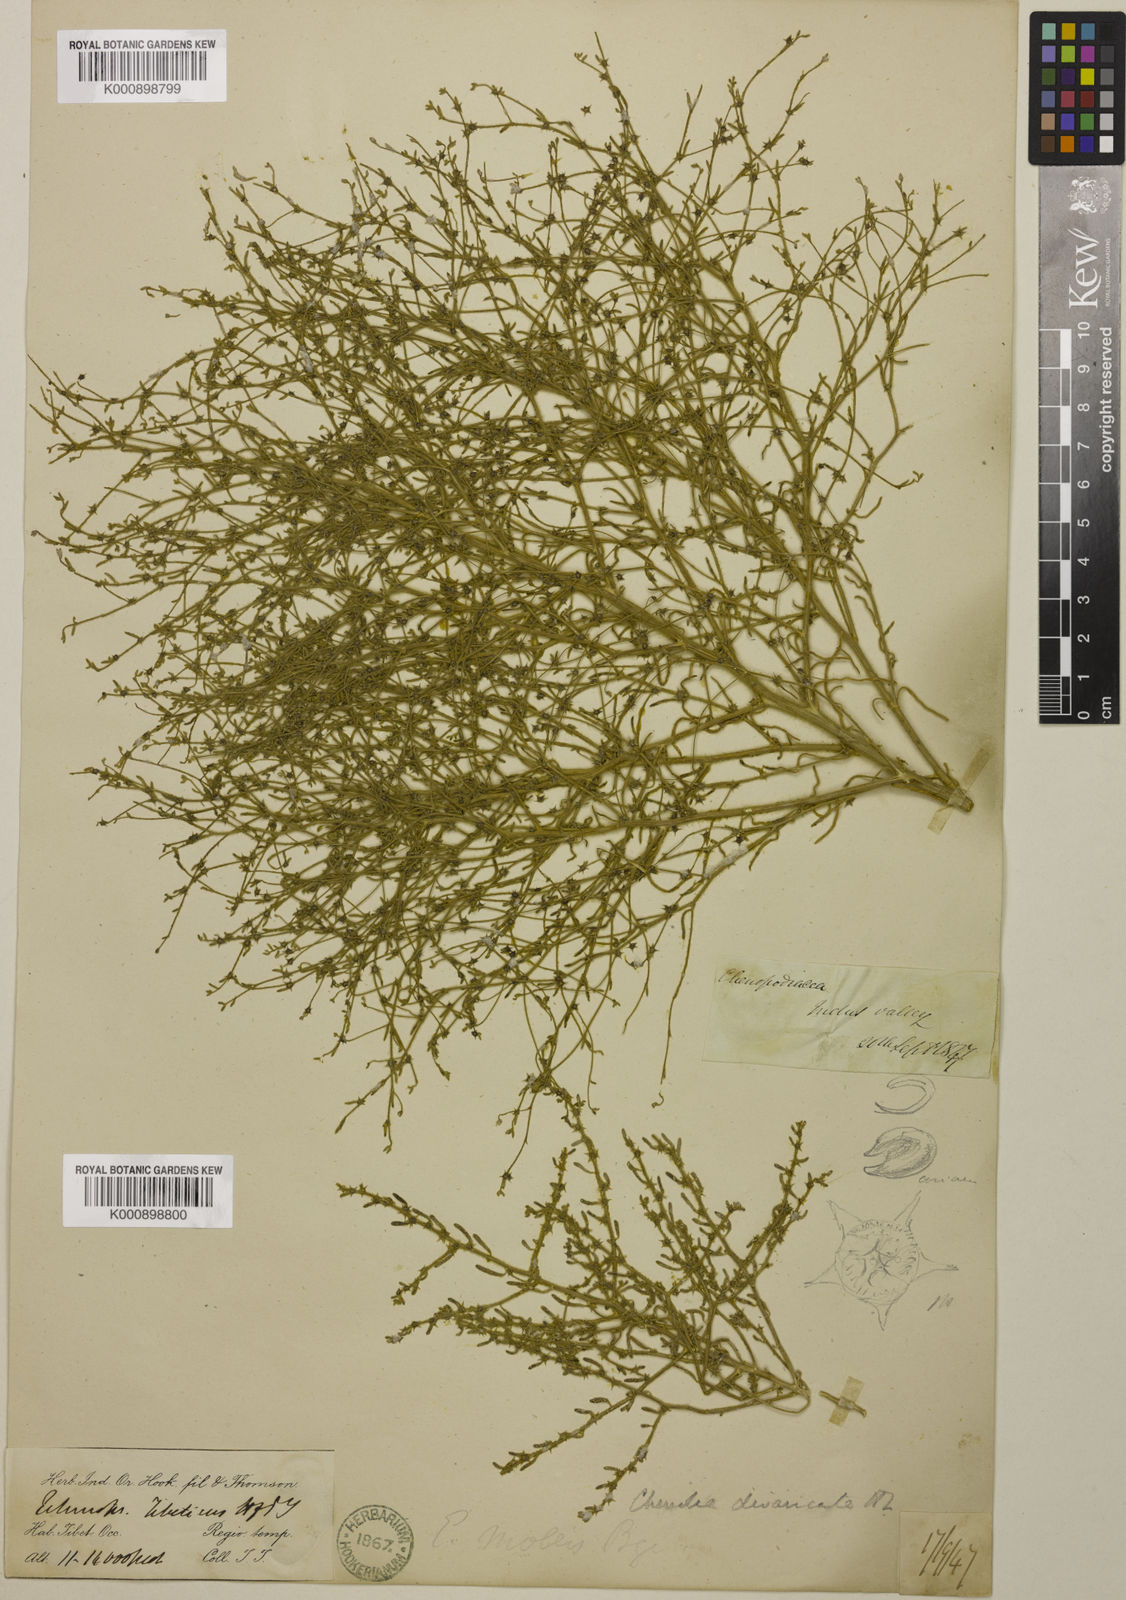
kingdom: Plantae
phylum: Tracheophyta
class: Magnoliopsida
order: Caryophyllales
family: Amaranthaceae
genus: Grubovia
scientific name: Grubovia dasyphylla
